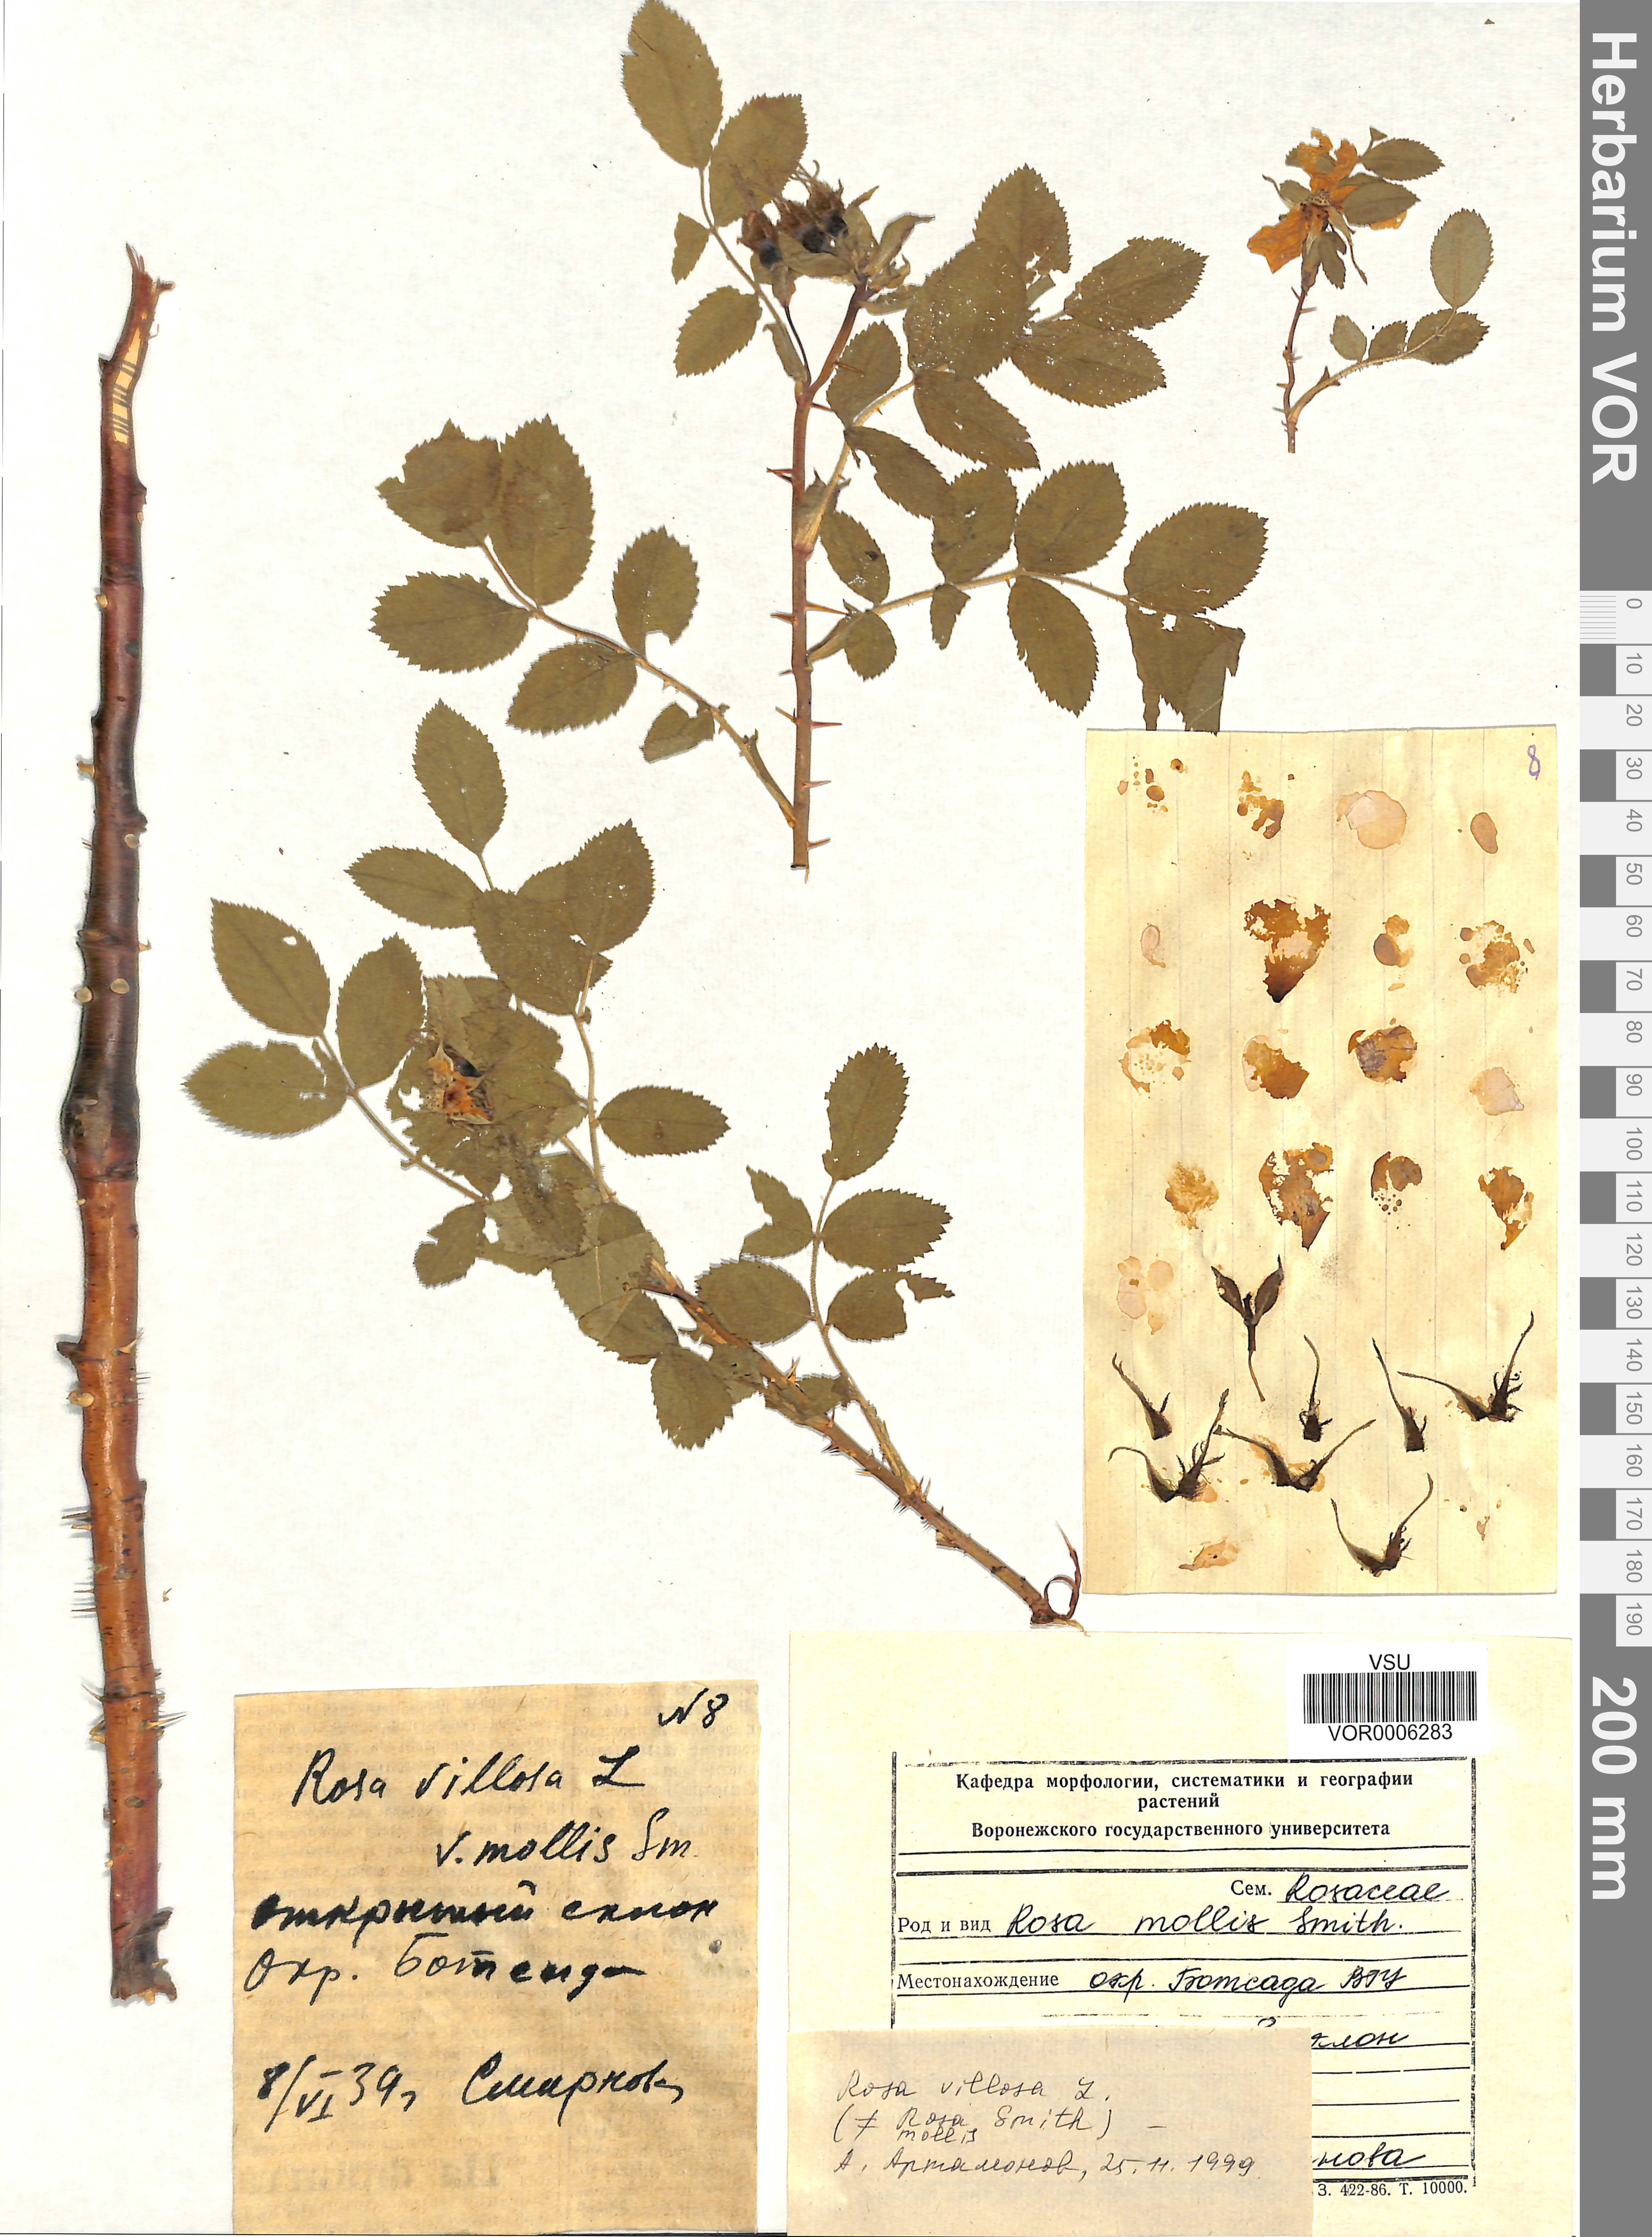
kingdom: Plantae
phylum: Tracheophyta
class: Magnoliopsida
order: Rosales
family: Rosaceae
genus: Rosa
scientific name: Rosa villosa
